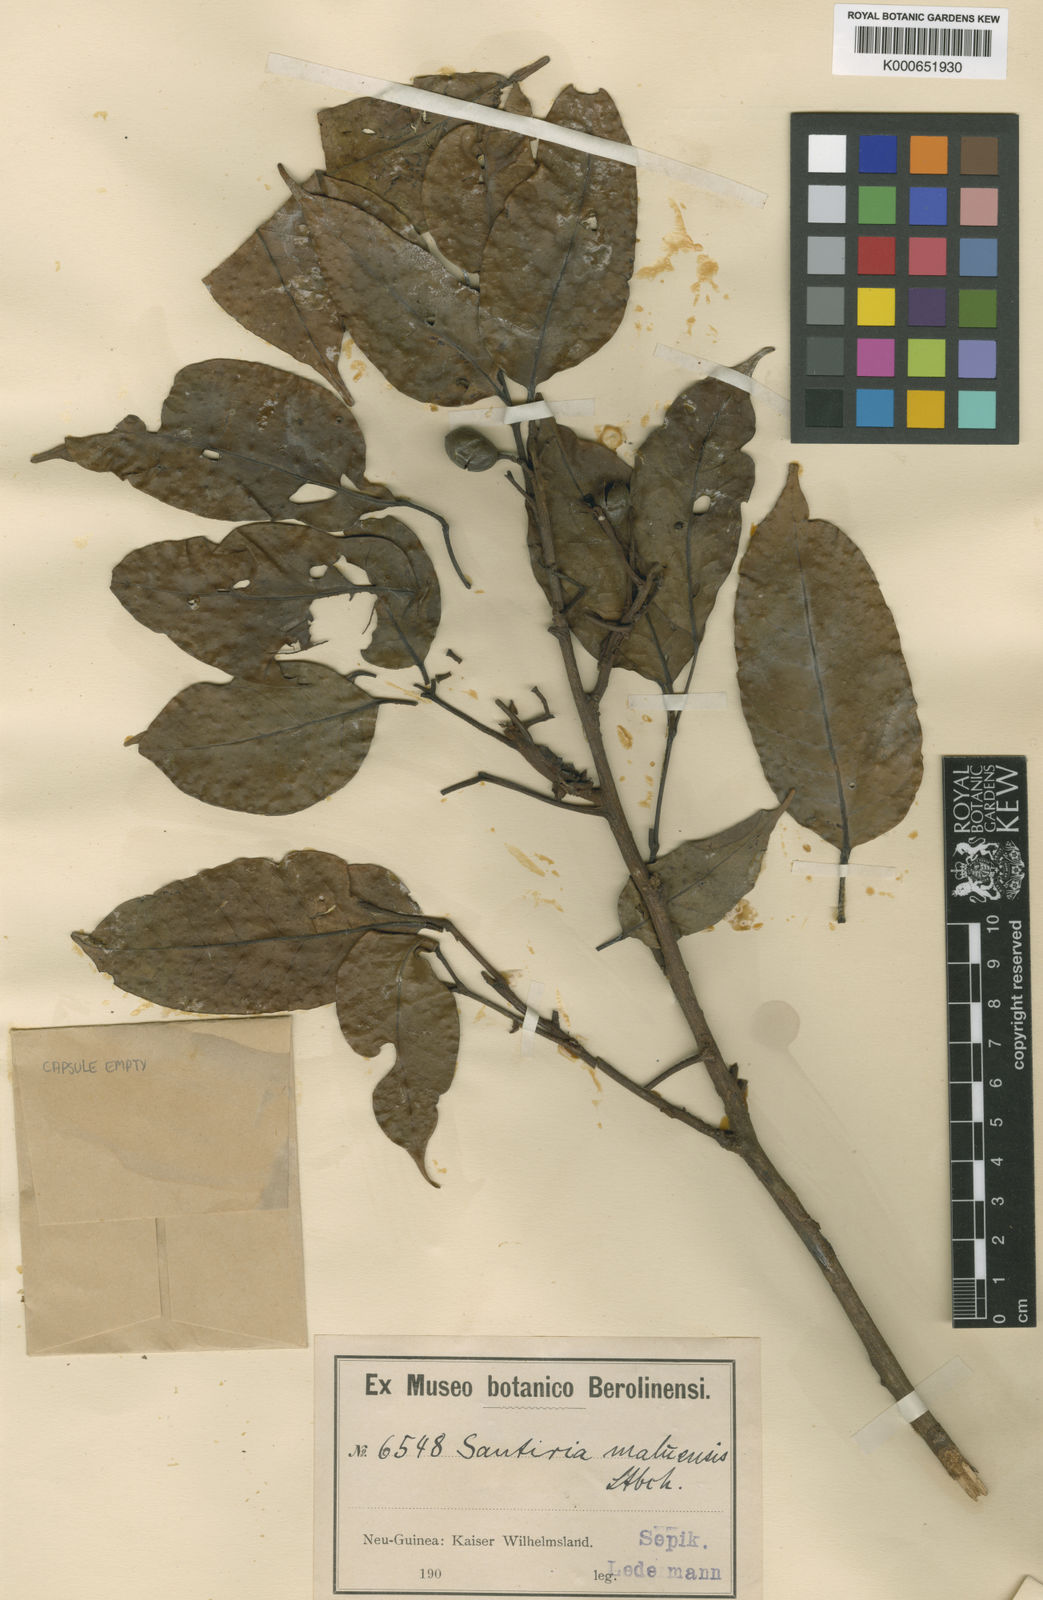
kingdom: Plantae
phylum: Tracheophyta
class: Magnoliopsida
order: Sapindales
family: Burseraceae
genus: Haplolobus
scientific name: Haplolobus floribundus
